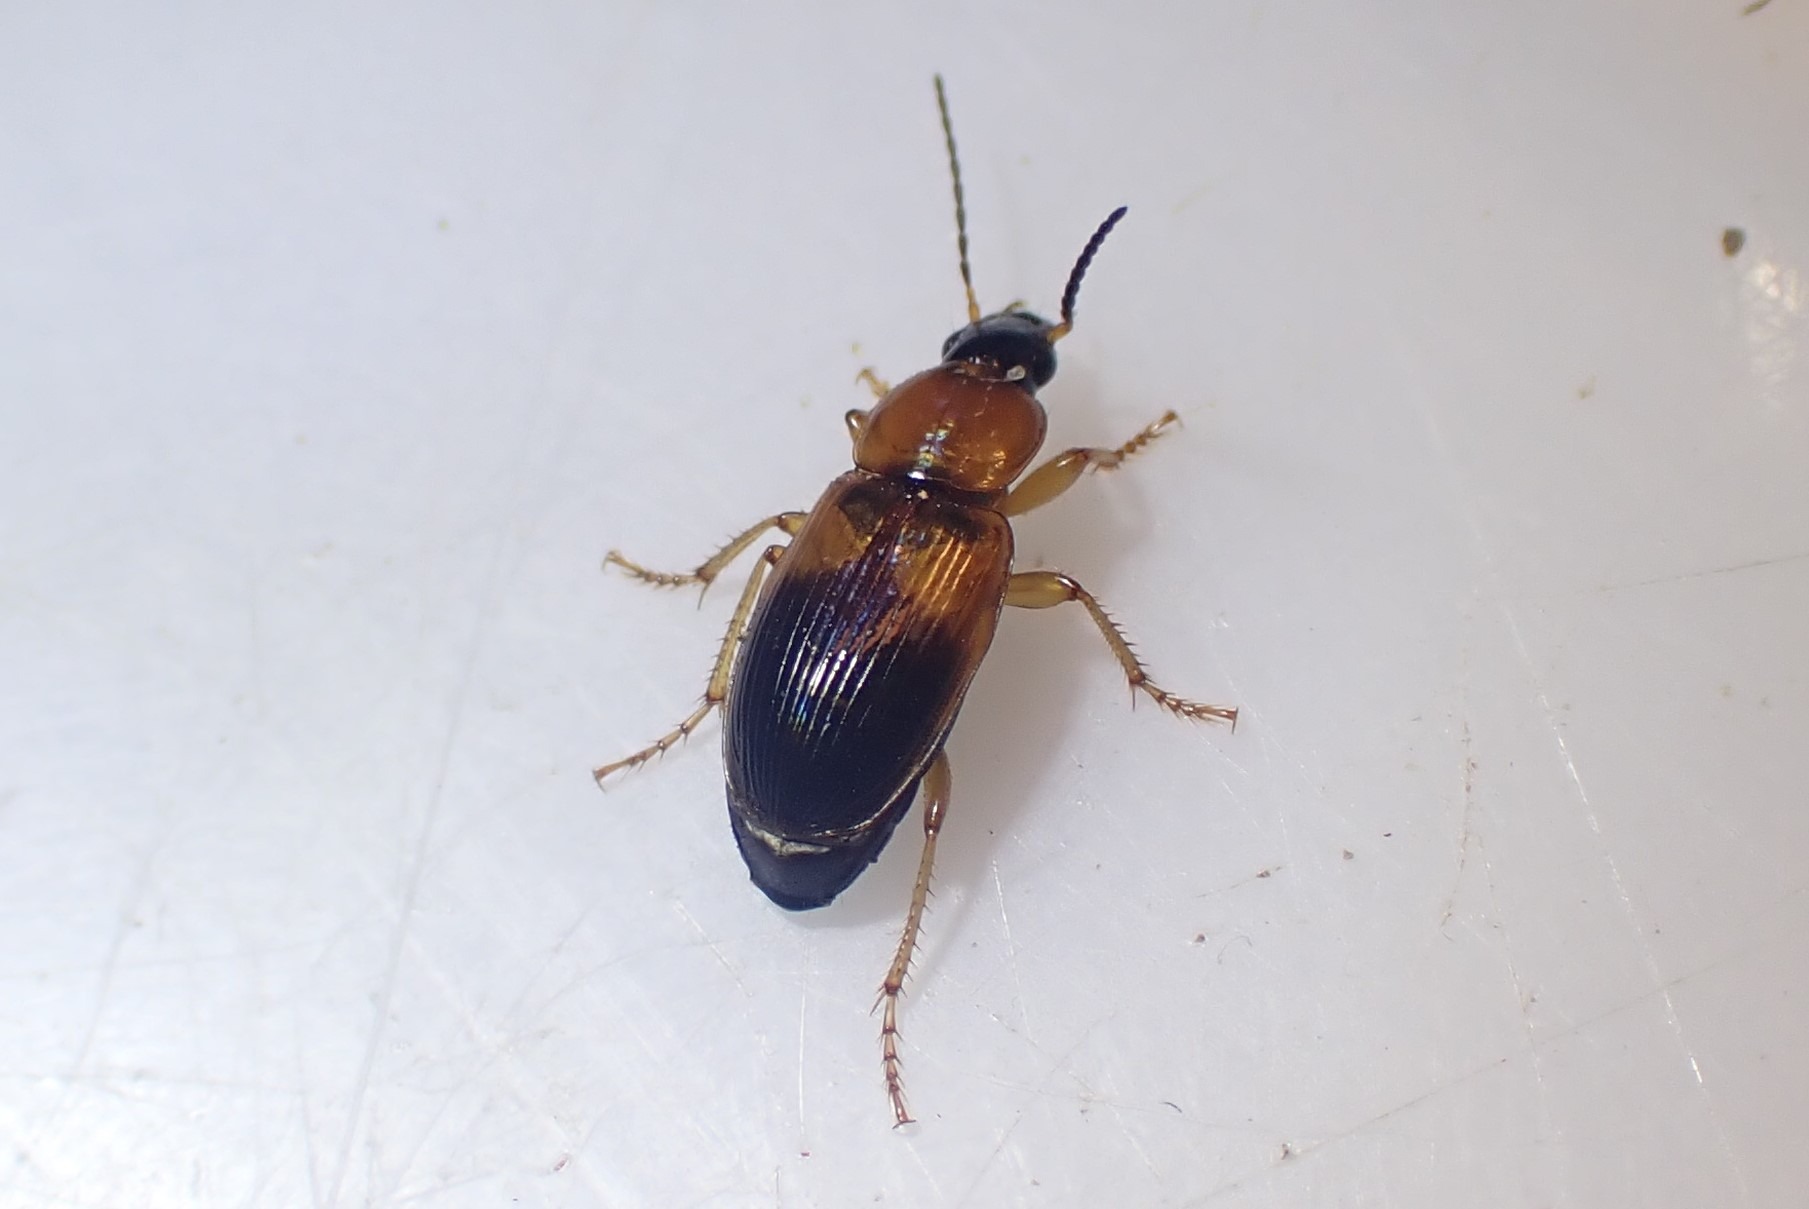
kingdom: Animalia
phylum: Arthropoda
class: Insecta
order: Coleoptera
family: Carabidae
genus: Stenolophus
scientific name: Stenolophus teutonus
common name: Spraglet damløber
